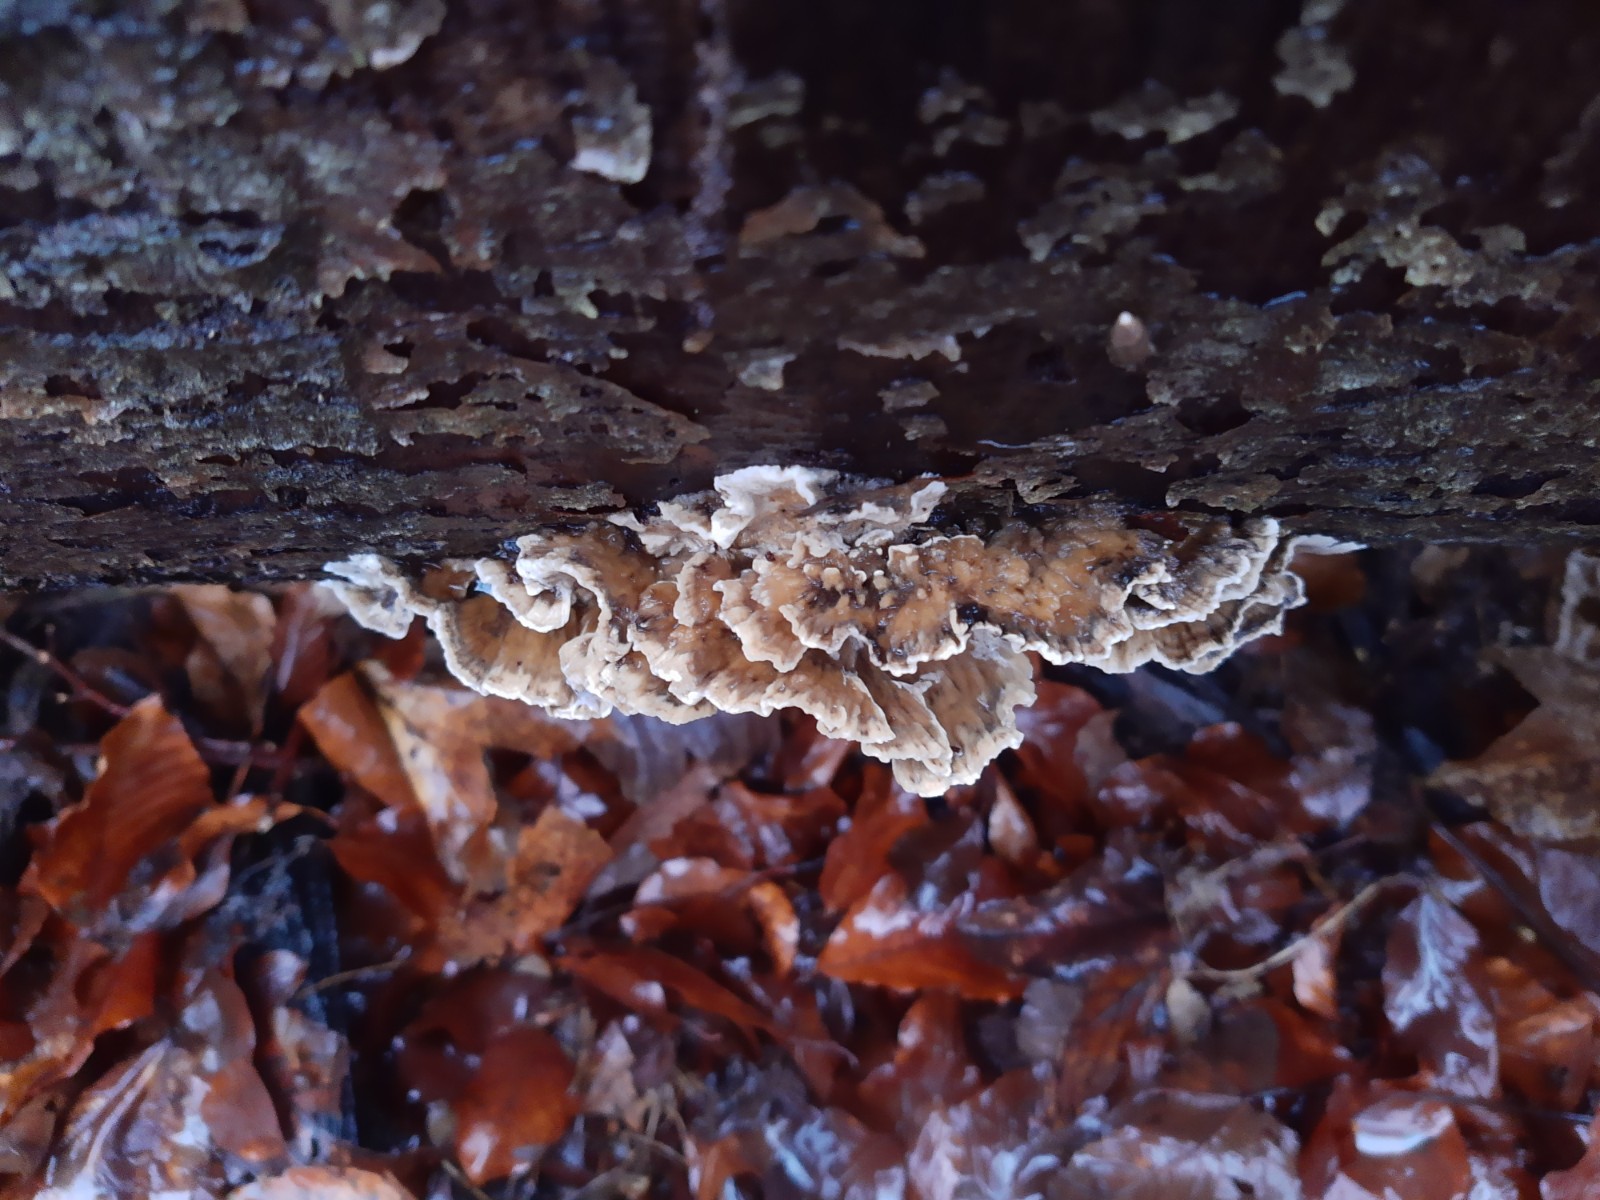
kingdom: Fungi
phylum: Basidiomycota
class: Agaricomycetes
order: Polyporales
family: Phanerochaetaceae
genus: Bjerkandera
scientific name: Bjerkandera adusta
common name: sveden sodporesvamp
